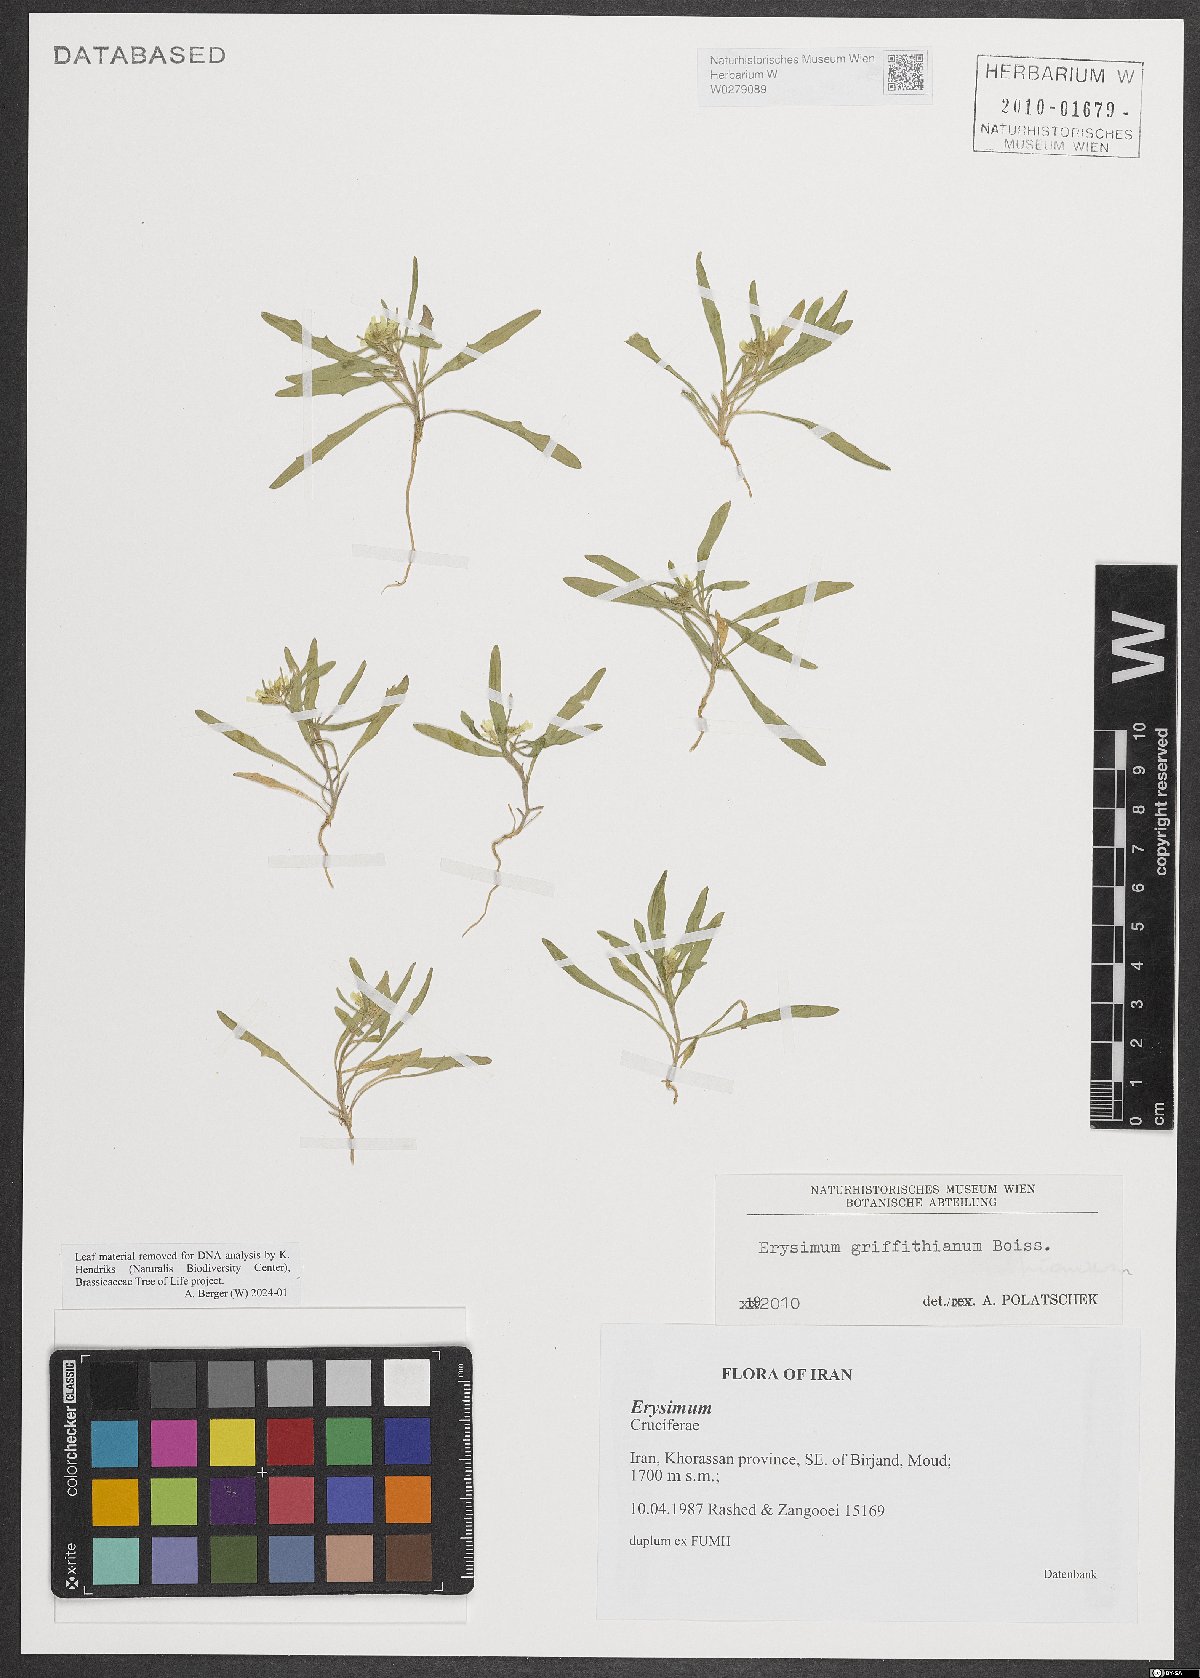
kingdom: Plantae
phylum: Tracheophyta
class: Magnoliopsida
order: Brassicales
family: Brassicaceae
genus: Erysimum
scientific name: Erysimum sisymbrioides
